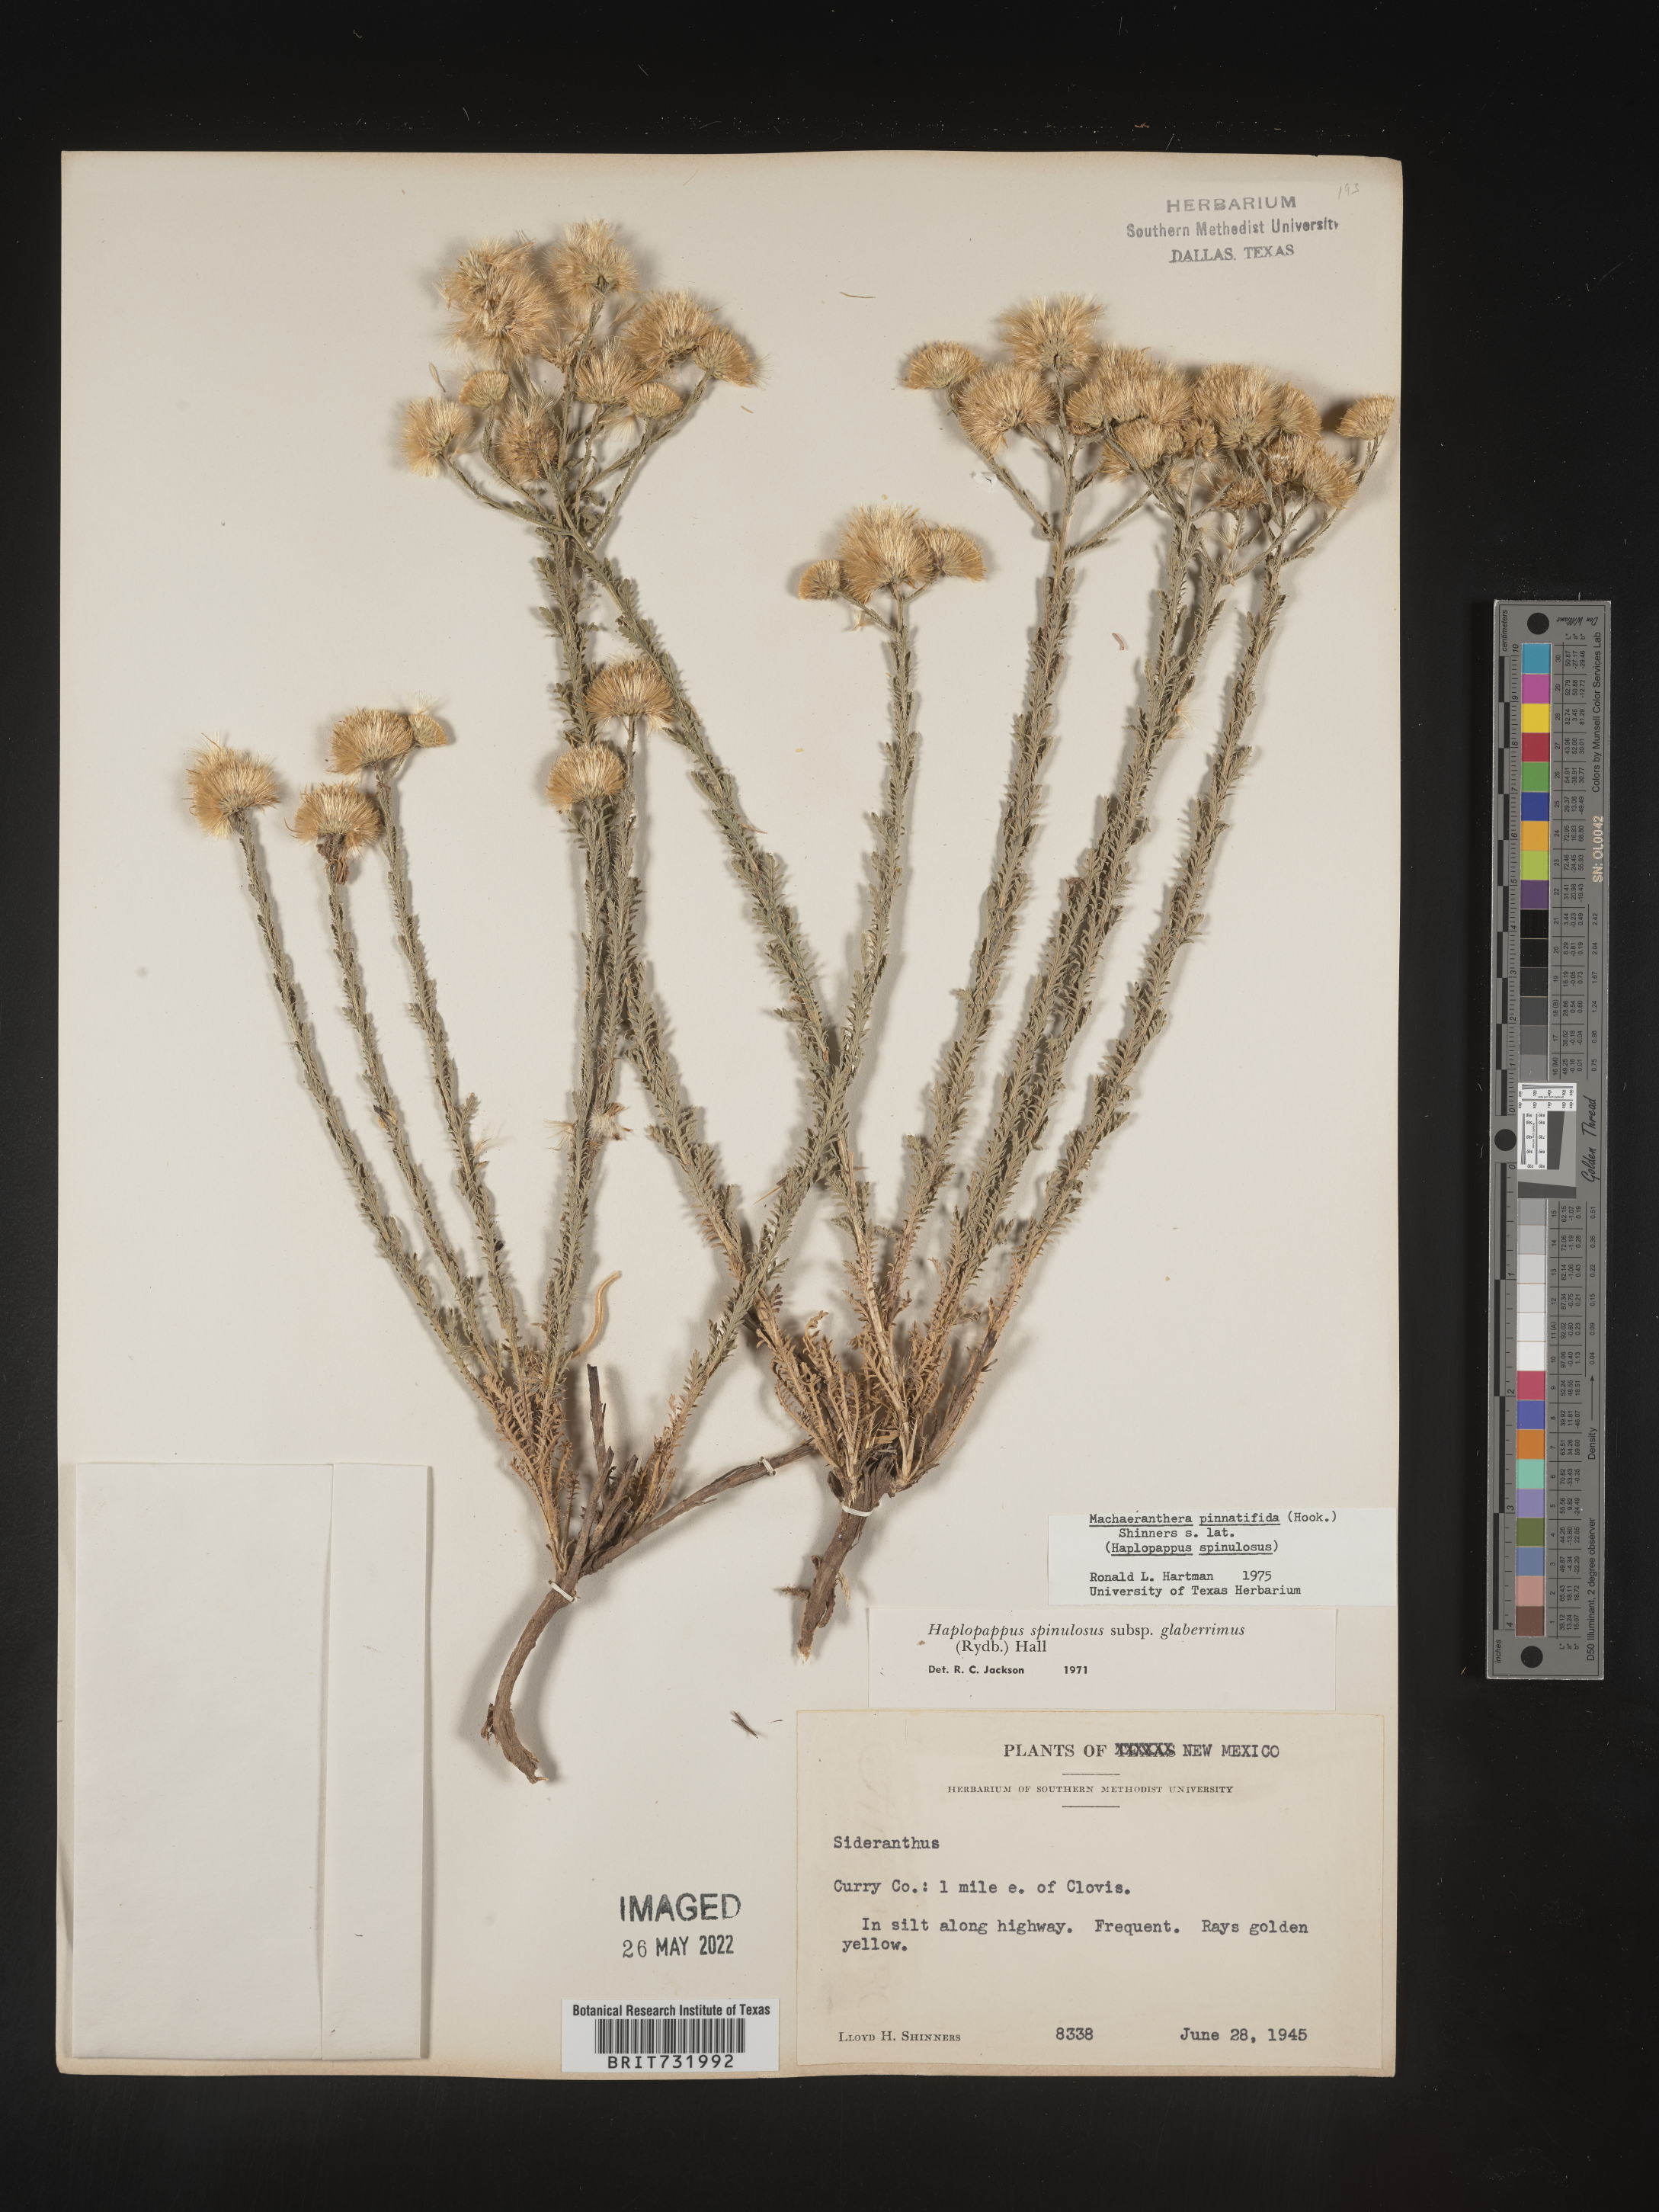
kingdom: Plantae
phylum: Tracheophyta
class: Magnoliopsida
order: Asterales
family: Asteraceae
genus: Xanthisma
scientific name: Xanthisma spinulosum
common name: Spiny goldenweed
